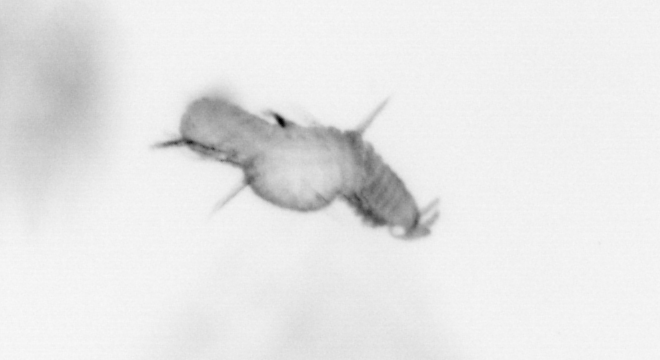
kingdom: Animalia
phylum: Annelida
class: Polychaeta
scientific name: Polychaeta
